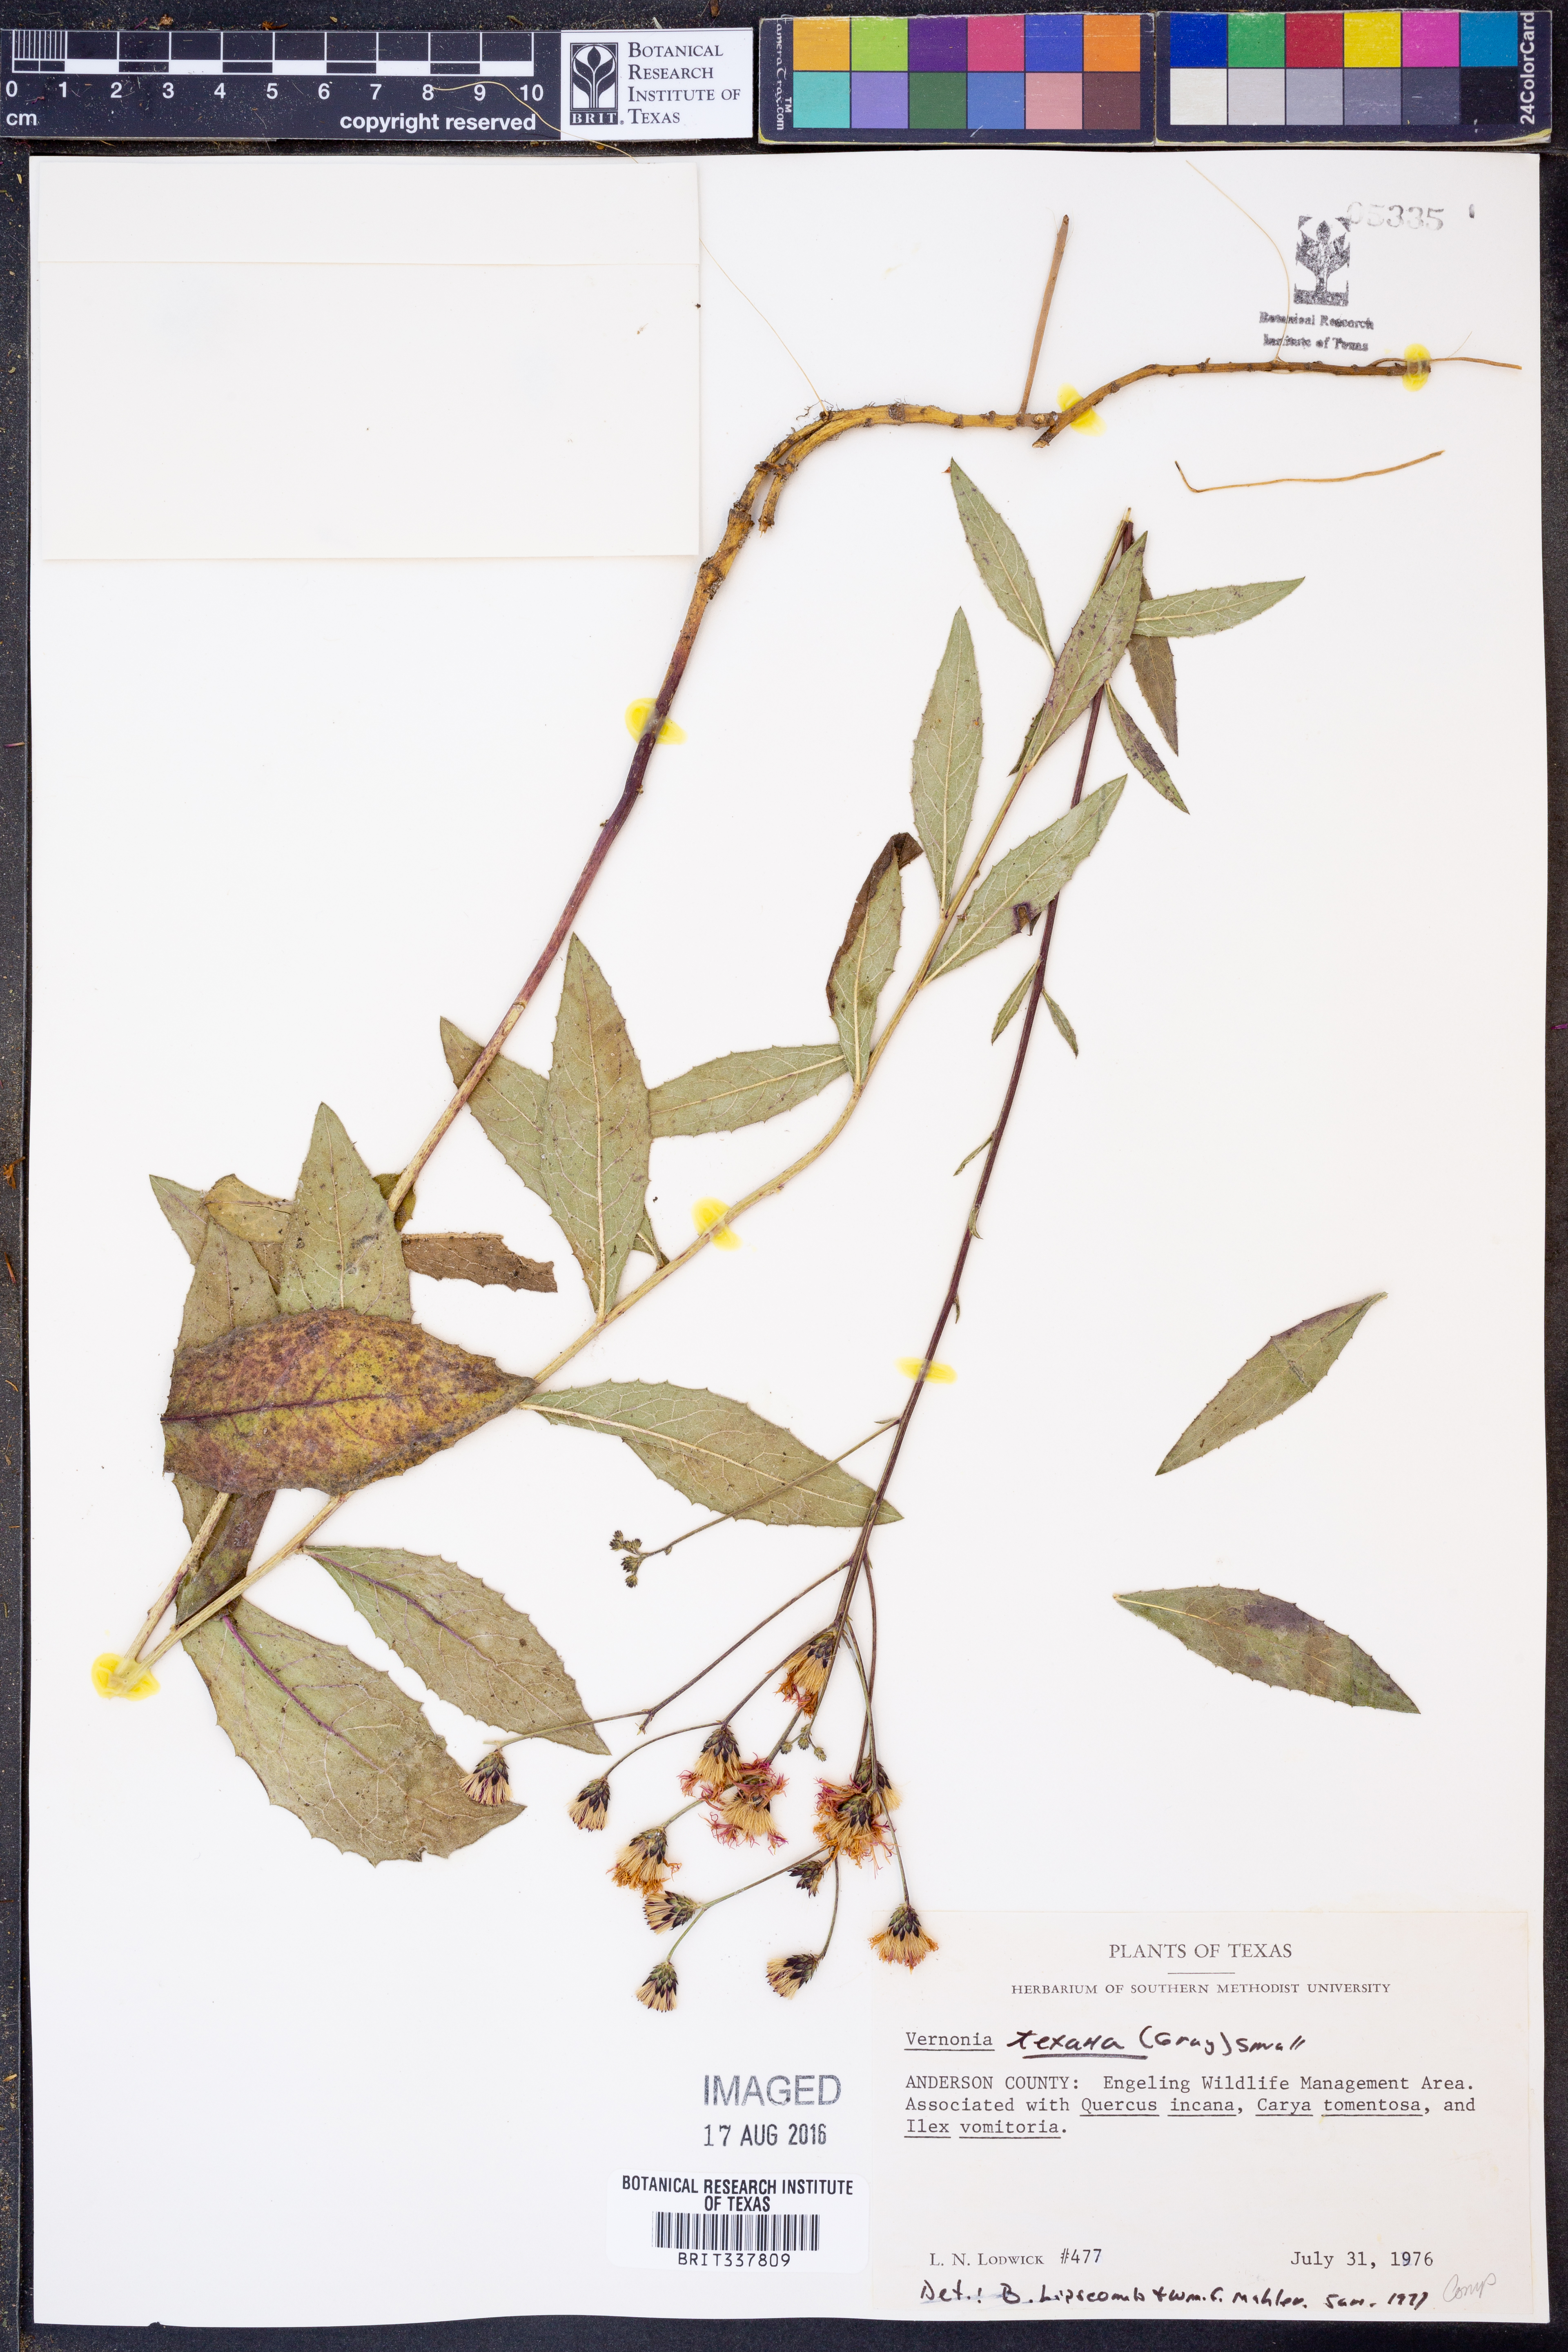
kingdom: Plantae
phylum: Tracheophyta
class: Magnoliopsida
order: Asterales
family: Asteraceae
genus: Vernonia
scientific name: Vernonia texana
